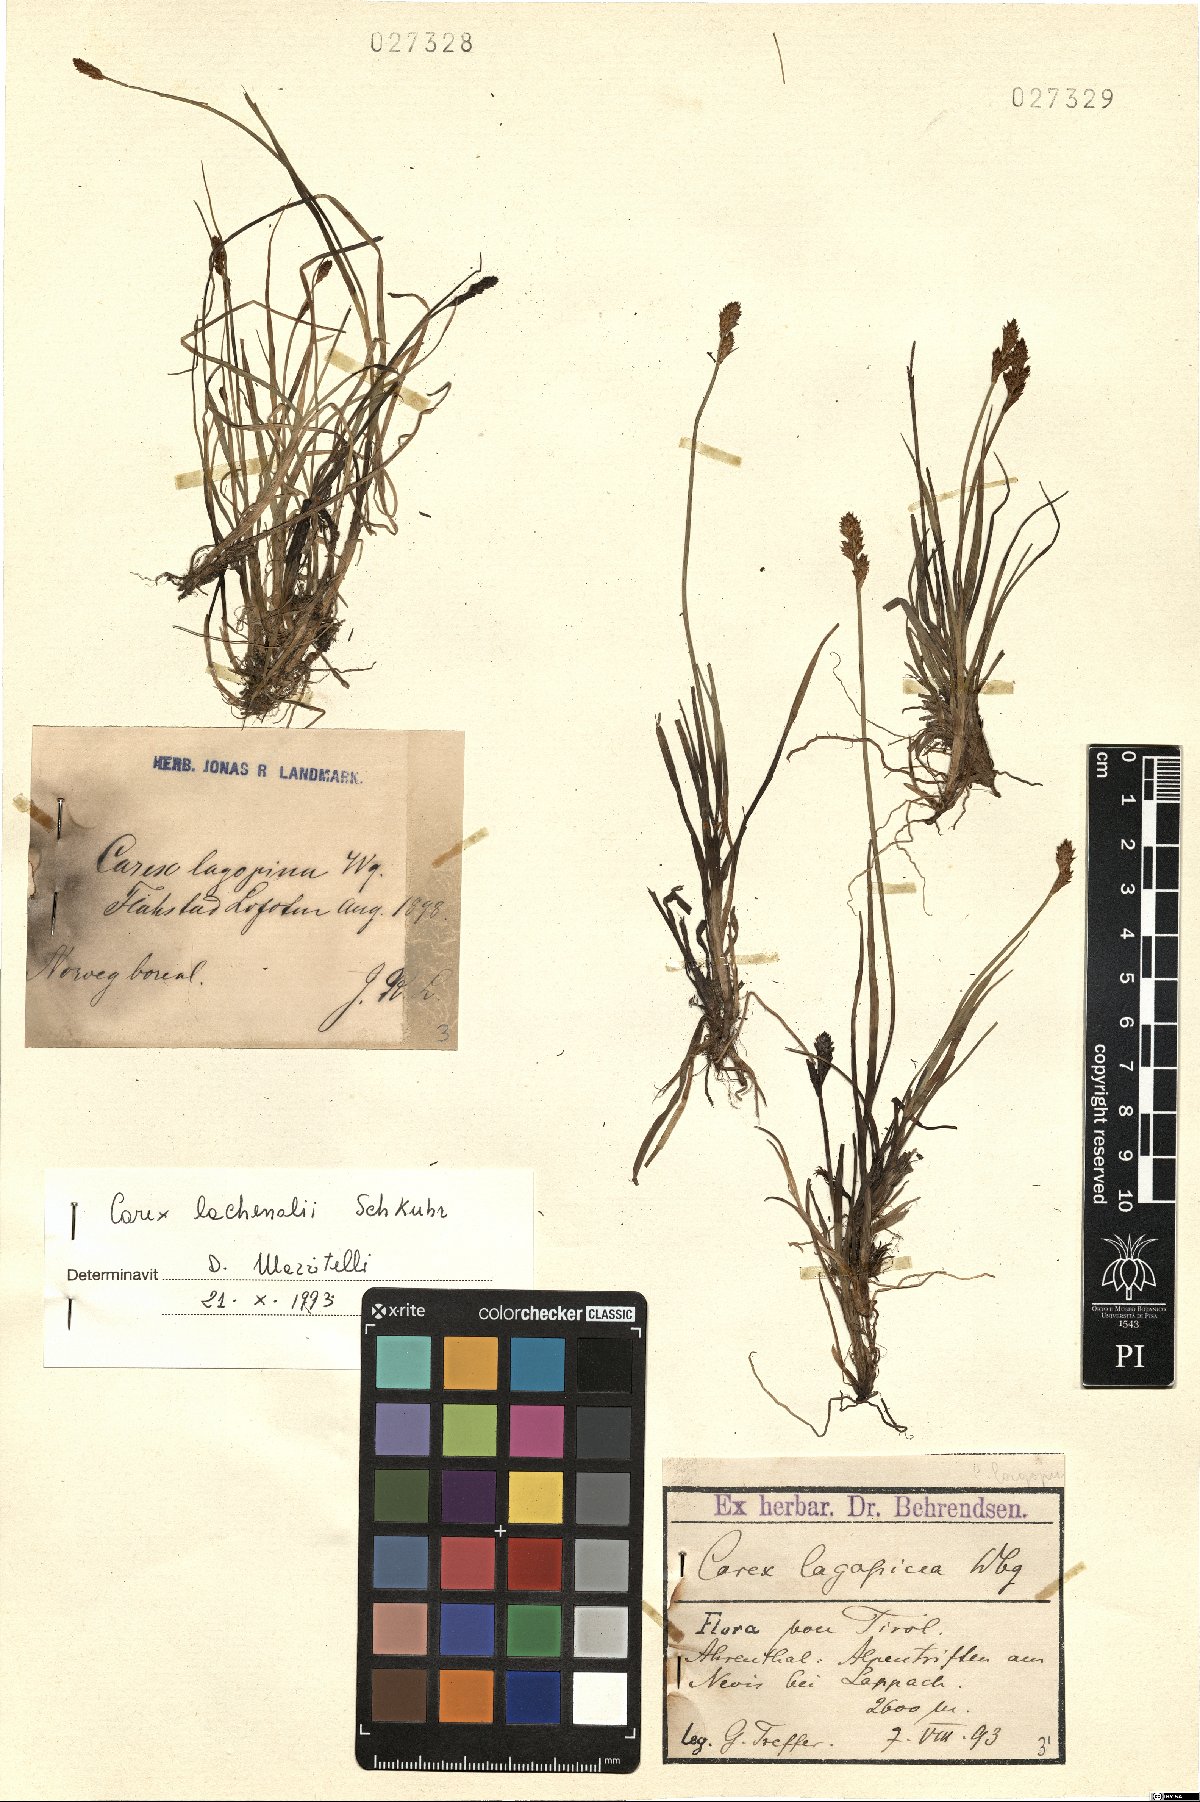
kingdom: Plantae
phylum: Tracheophyta
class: Liliopsida
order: Poales
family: Cyperaceae
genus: Carex
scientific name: Carex lachenalii
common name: Hare's-foot sedge
